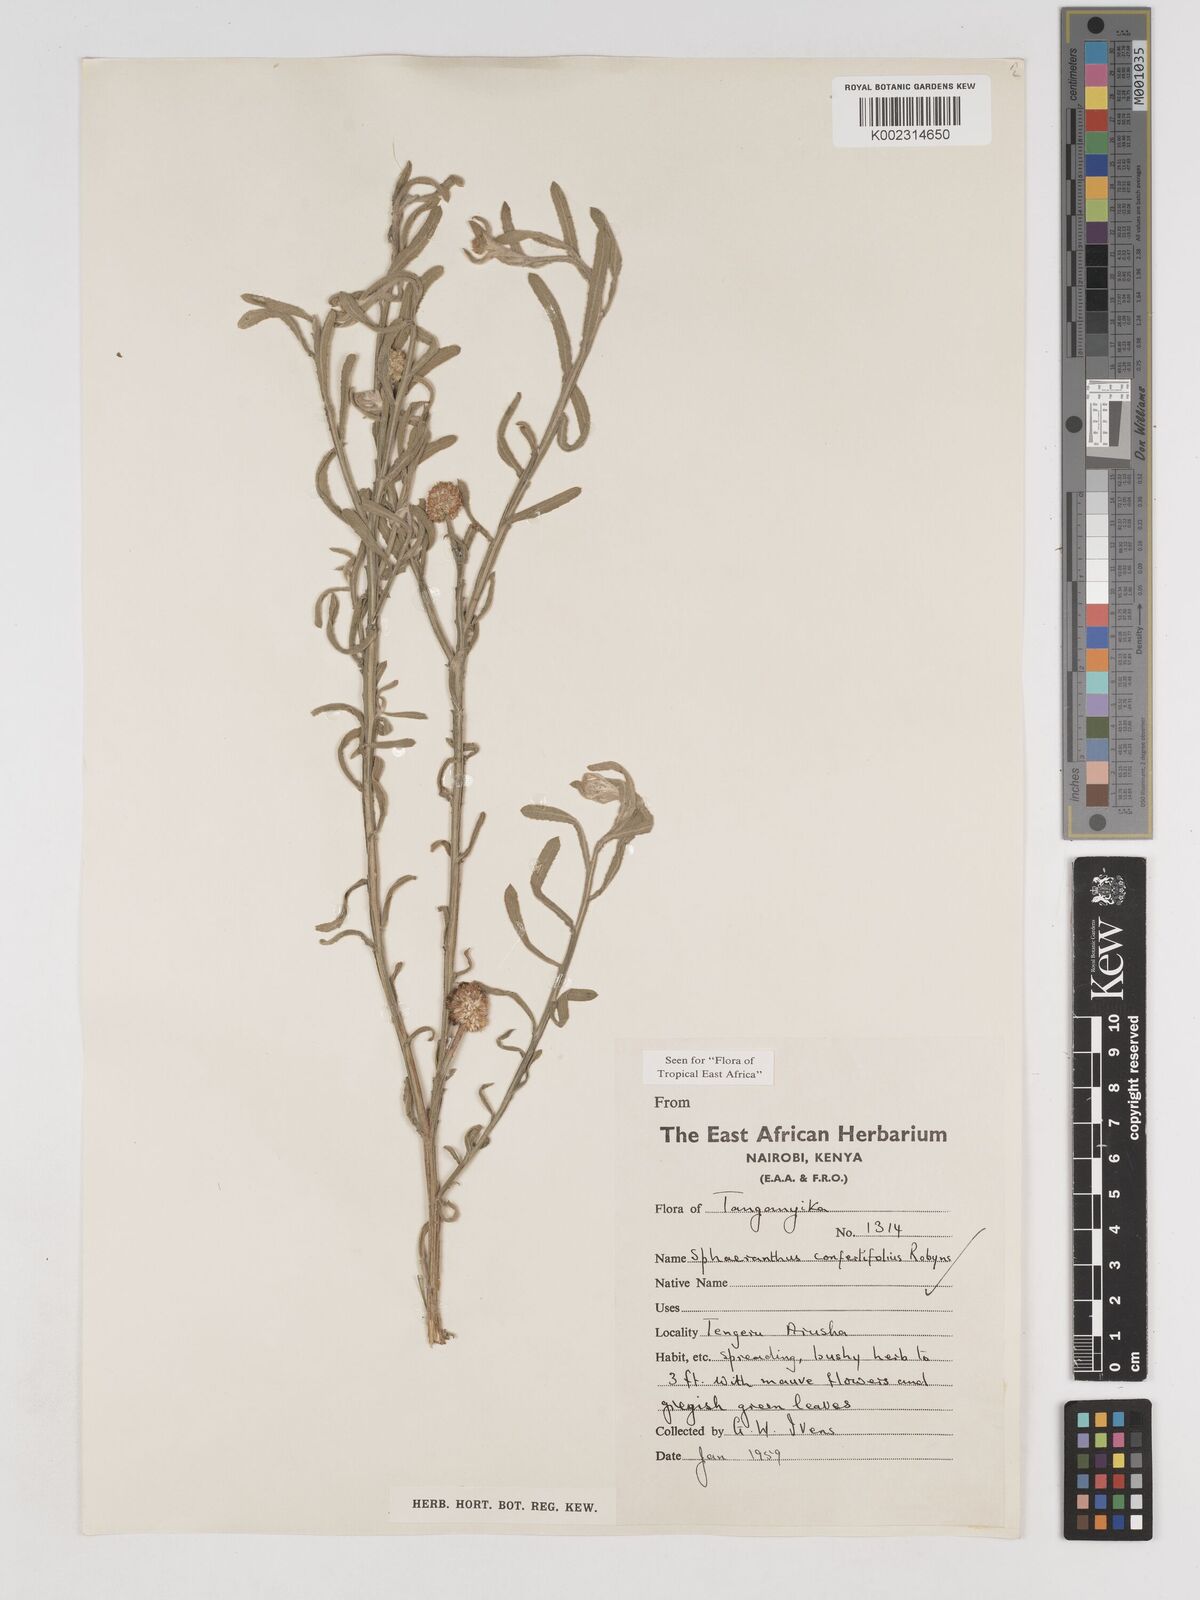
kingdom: Plantae
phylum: Tracheophyta
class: Magnoliopsida
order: Asterales
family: Asteraceae
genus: Sphaeranthus
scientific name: Sphaeranthus confertifolius
